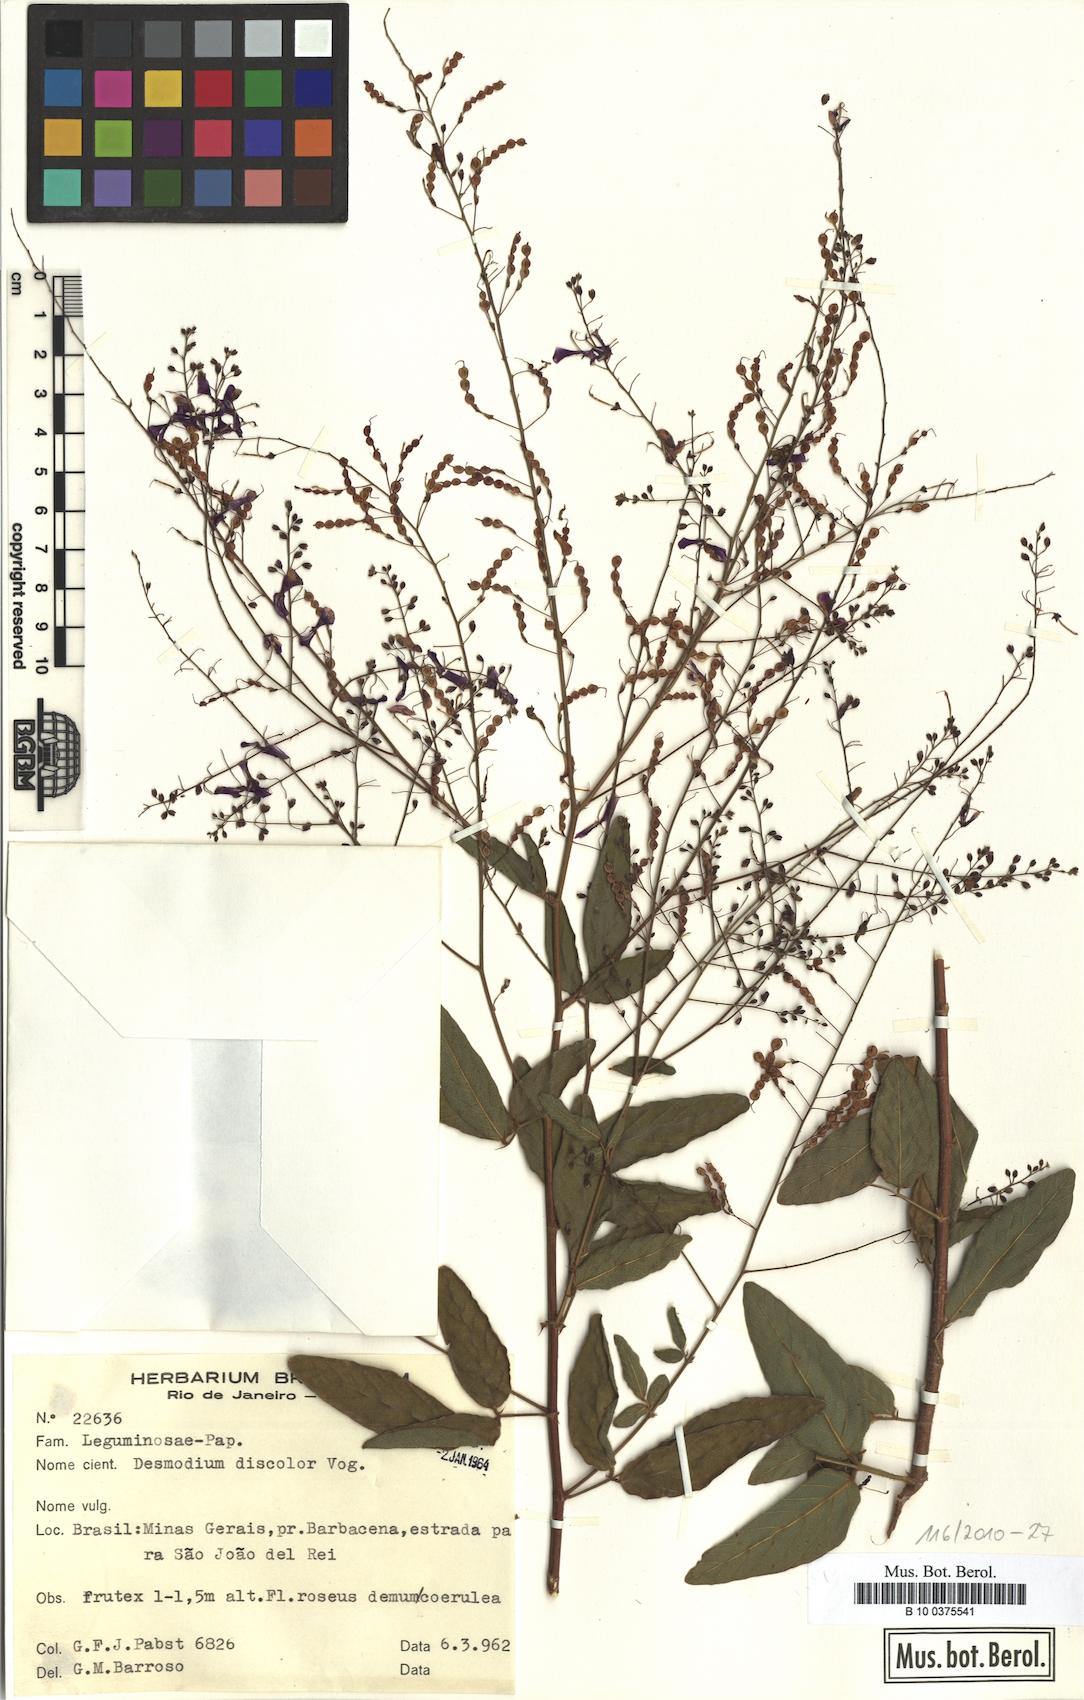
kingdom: Plantae
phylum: Tracheophyta
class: Magnoliopsida
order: Fabales
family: Fabaceae
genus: Desmodium
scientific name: Desmodium subsecundum
